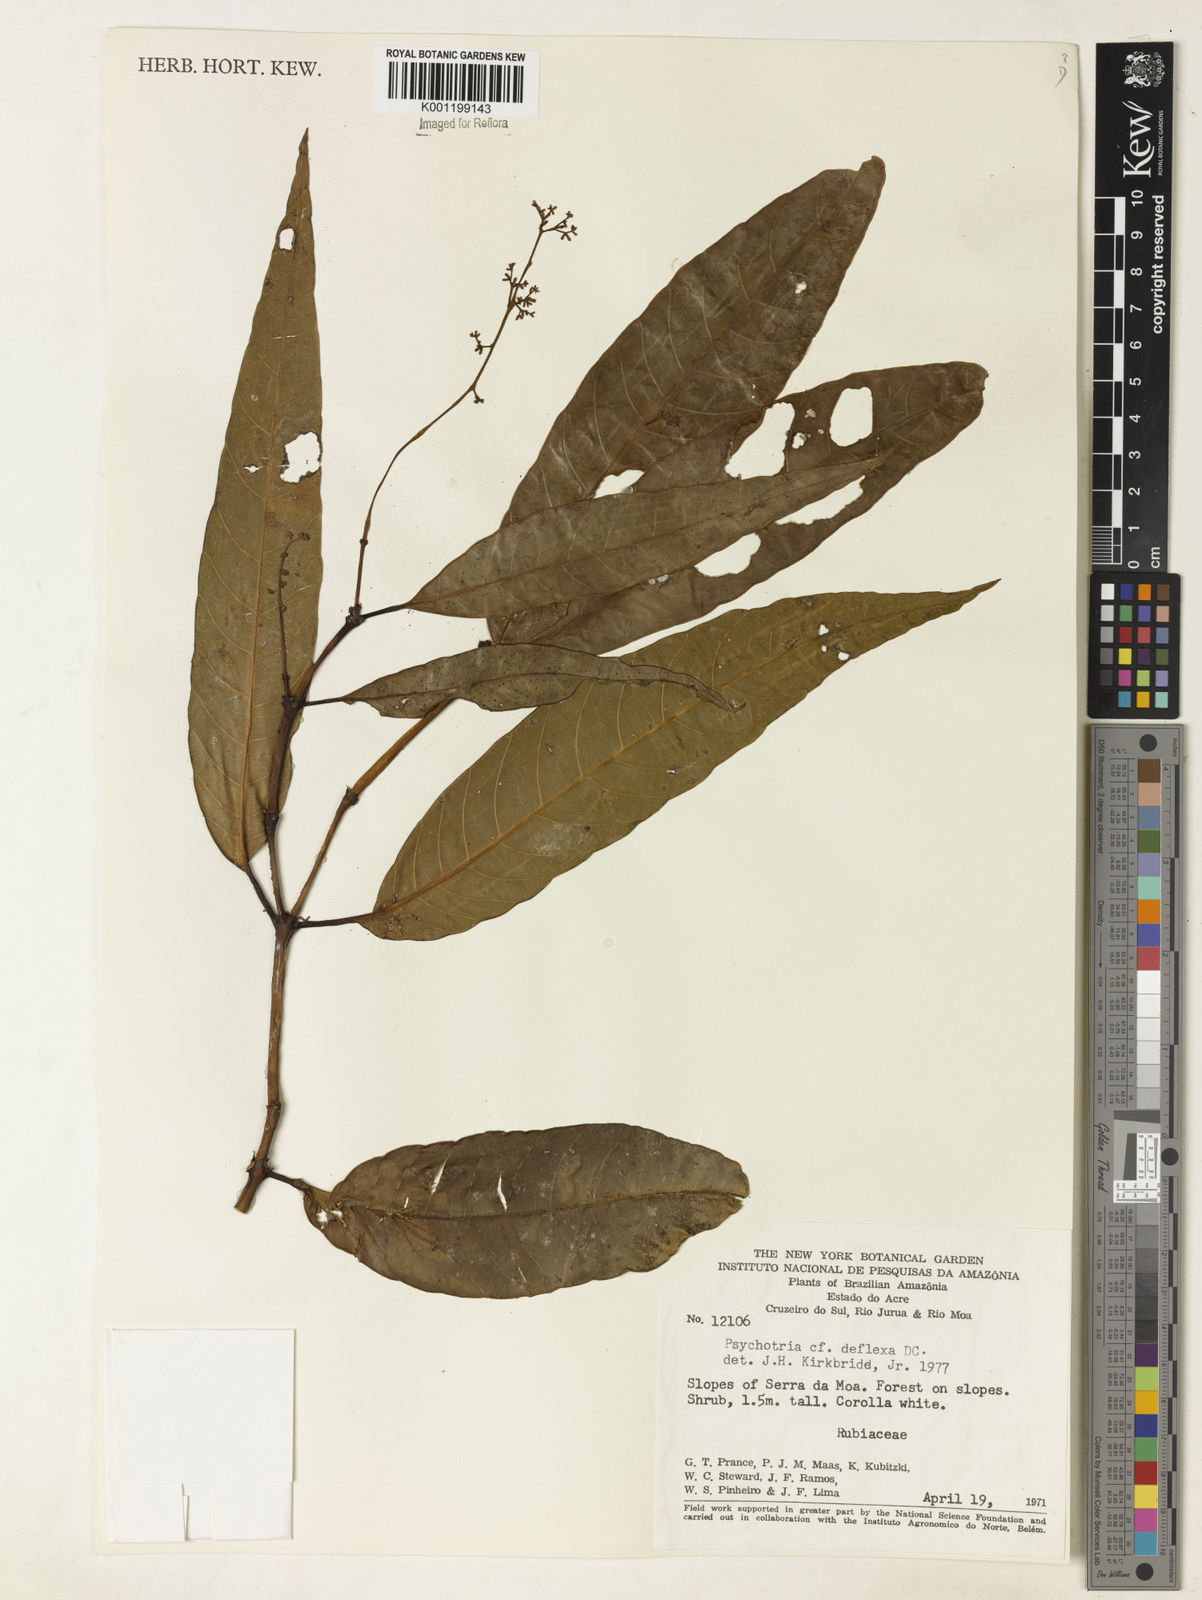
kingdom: Plantae
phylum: Tracheophyta
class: Magnoliopsida
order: Gentianales
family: Rubiaceae
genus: Psychotria
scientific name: Psychotria
